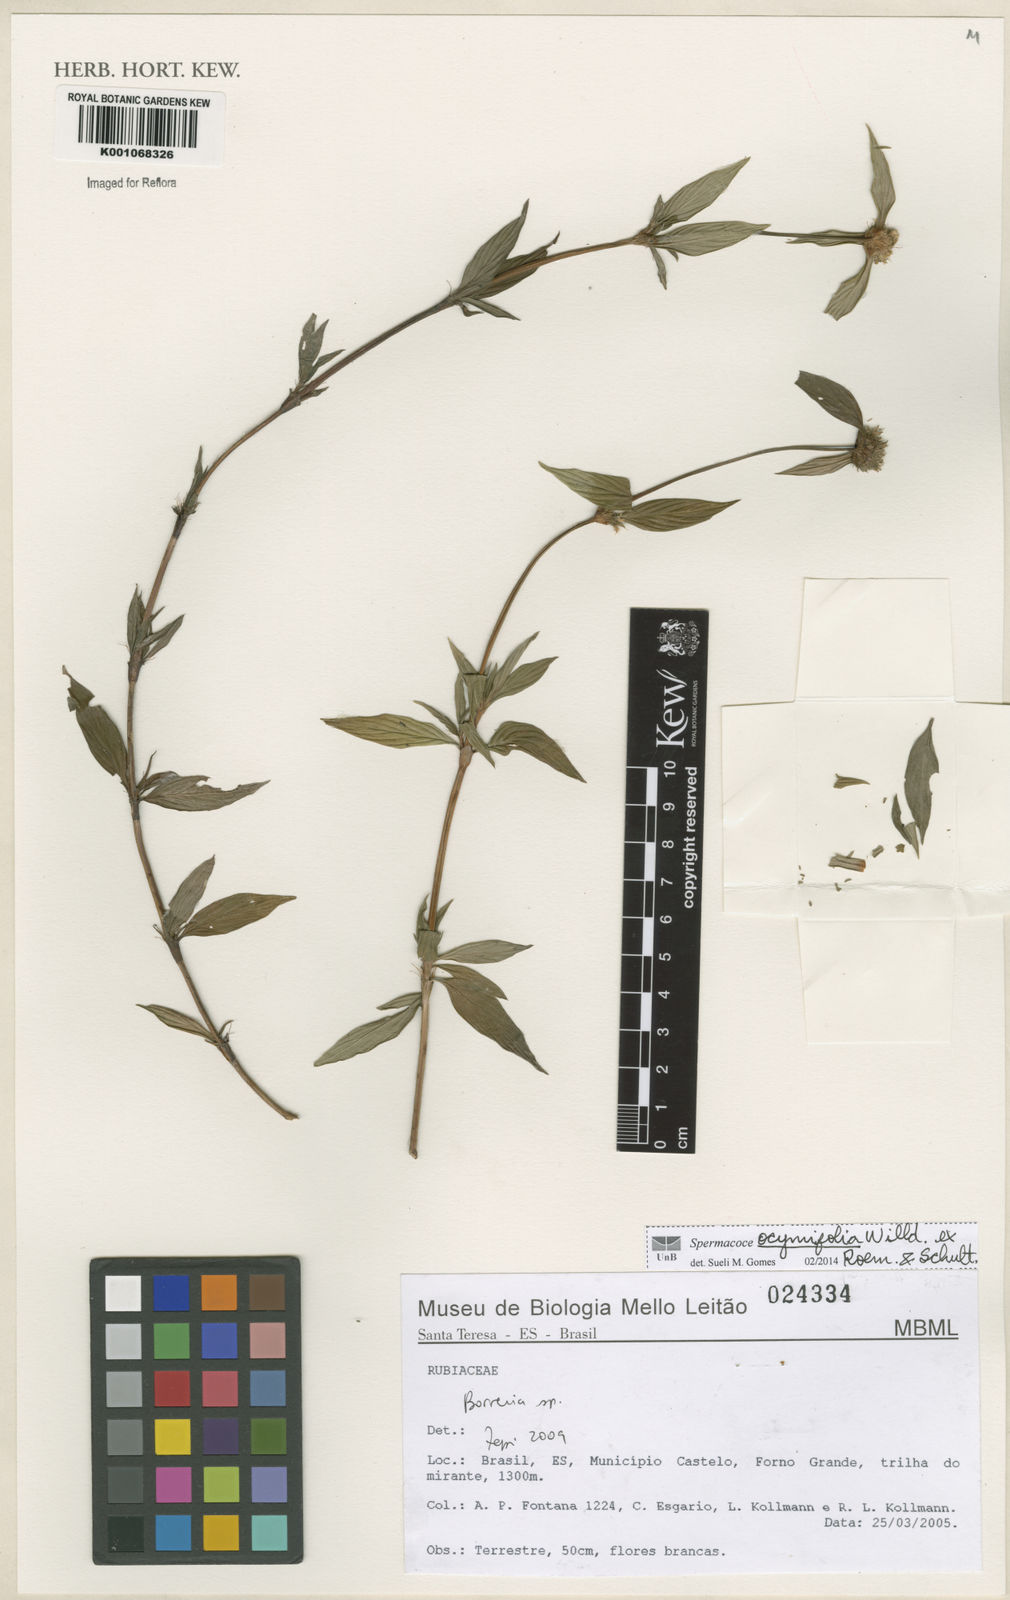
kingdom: Plantae
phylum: Tracheophyta
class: Magnoliopsida
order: Gentianales
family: Rubiaceae
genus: Spermacoce
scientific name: Spermacoce
